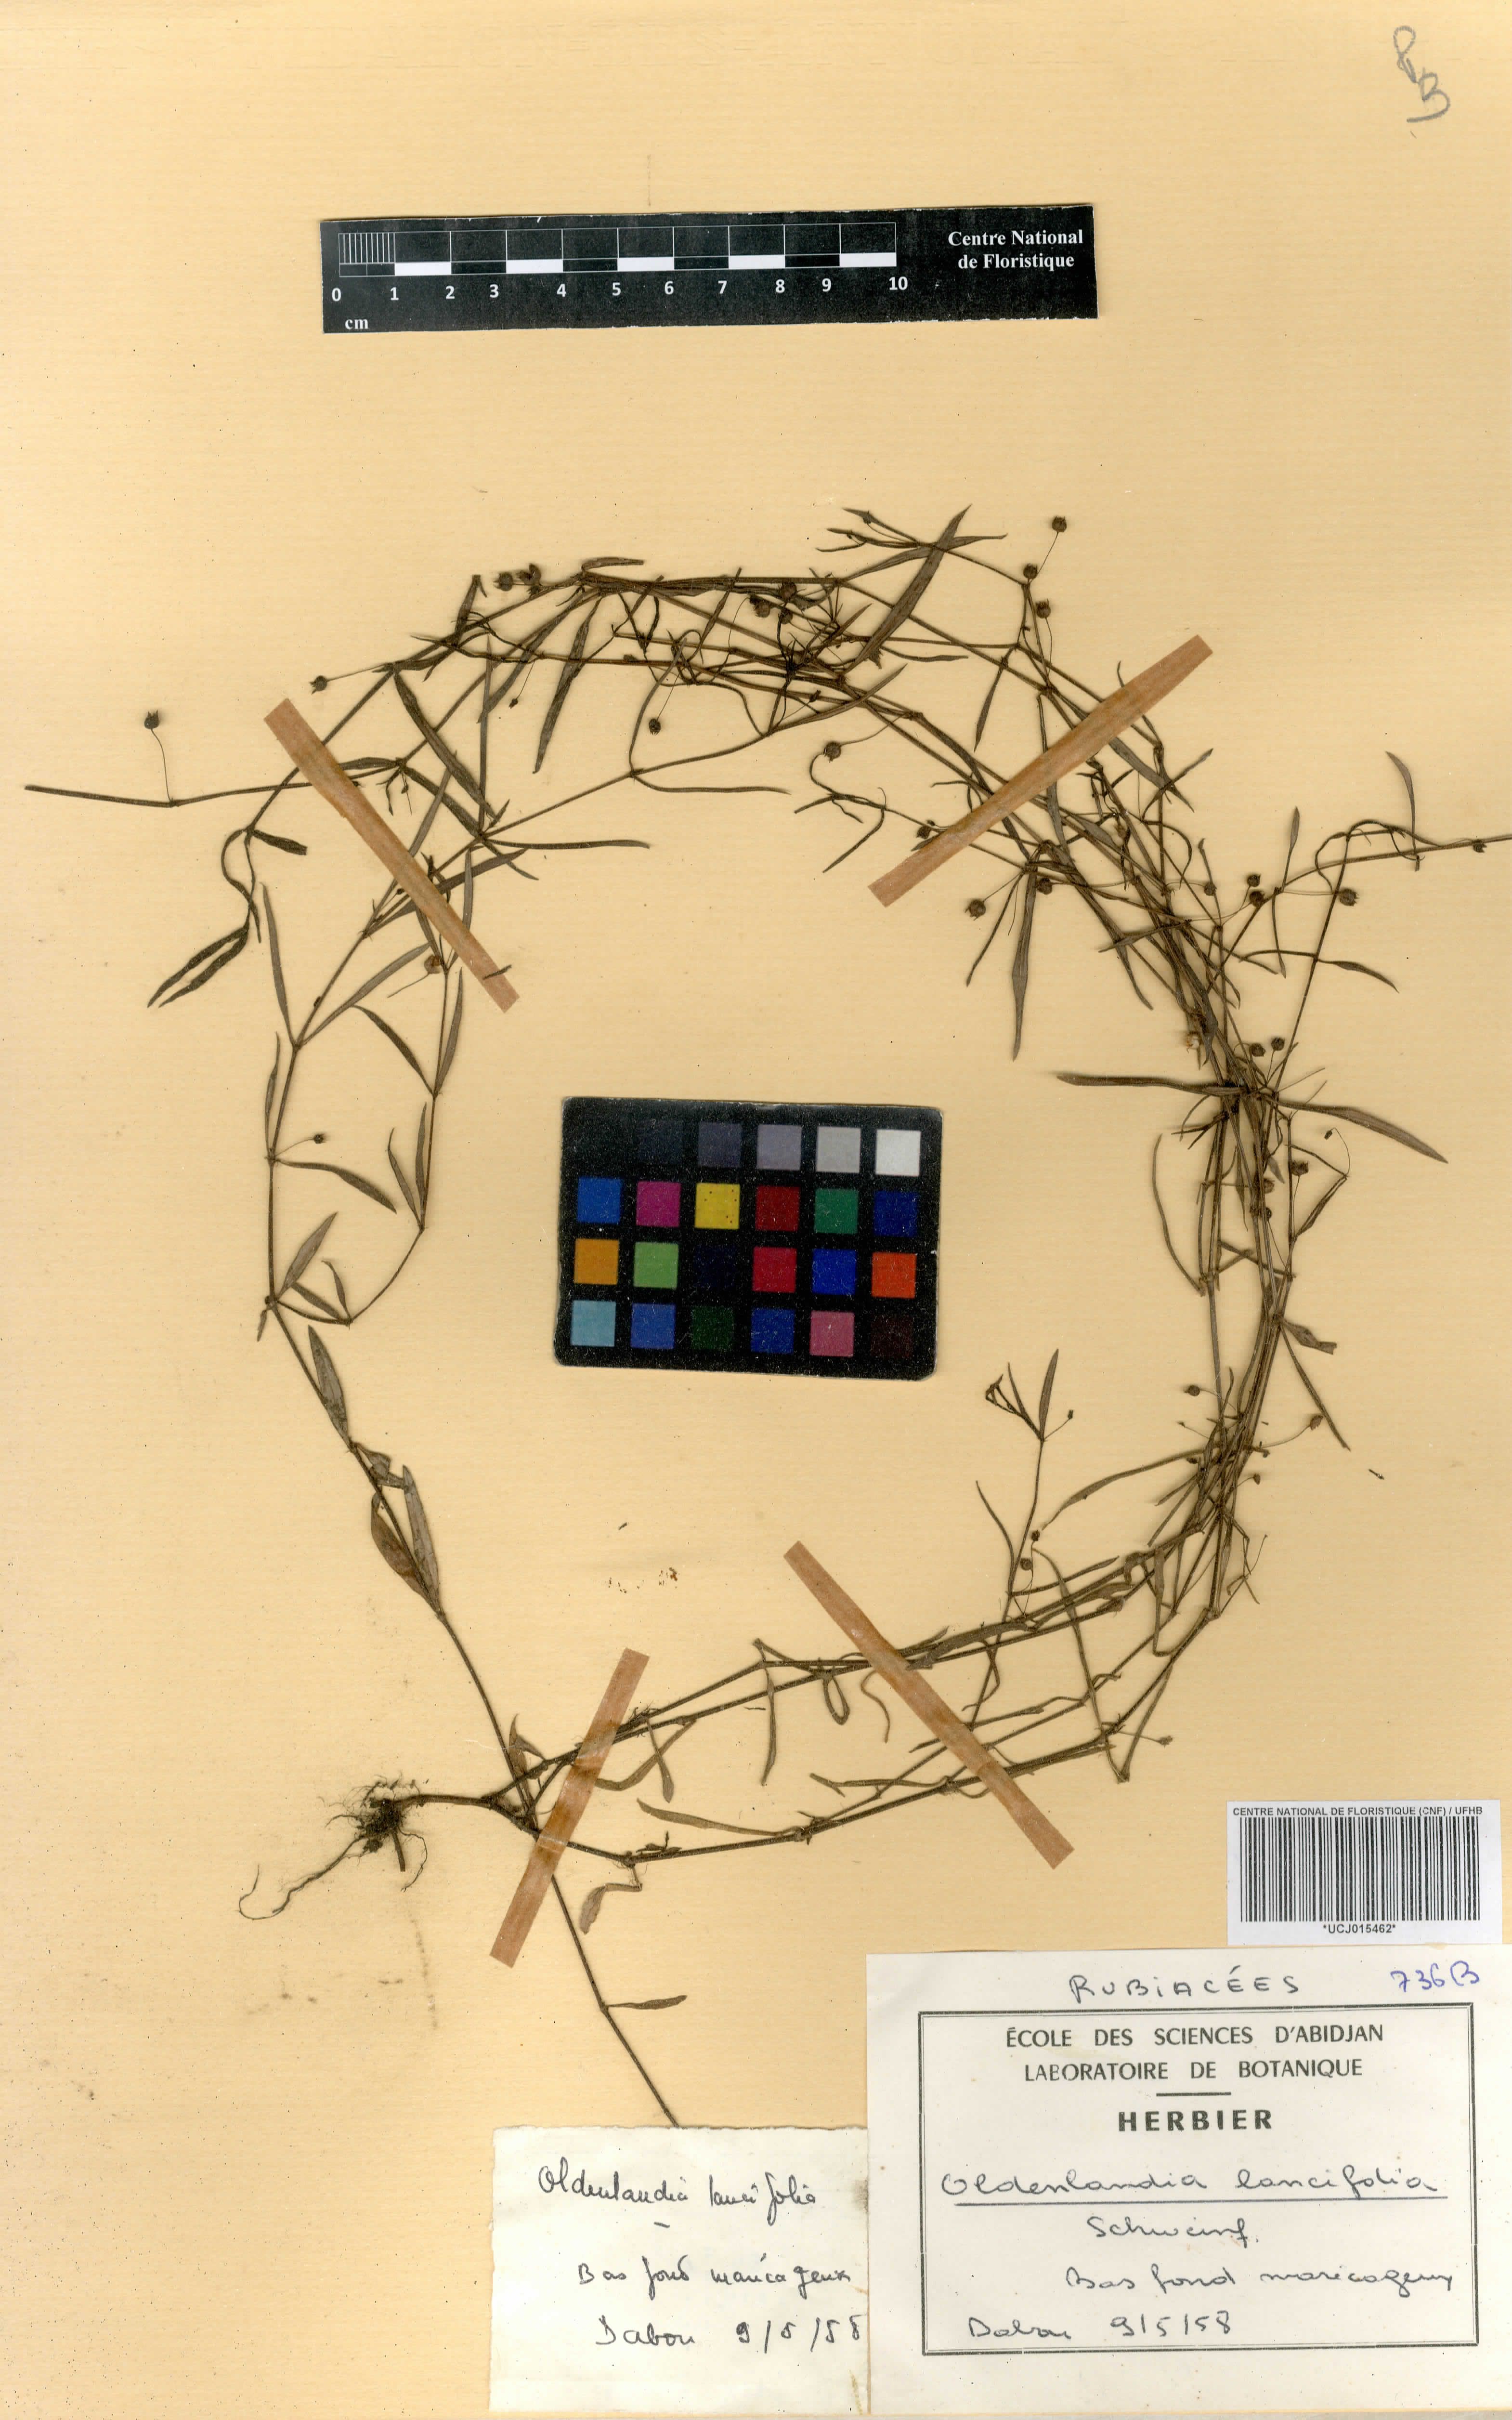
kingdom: Plantae
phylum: Tracheophyta
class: Magnoliopsida
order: Gentianales
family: Rubiaceae
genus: Oldenlandia
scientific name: Oldenlandia lancifolia
